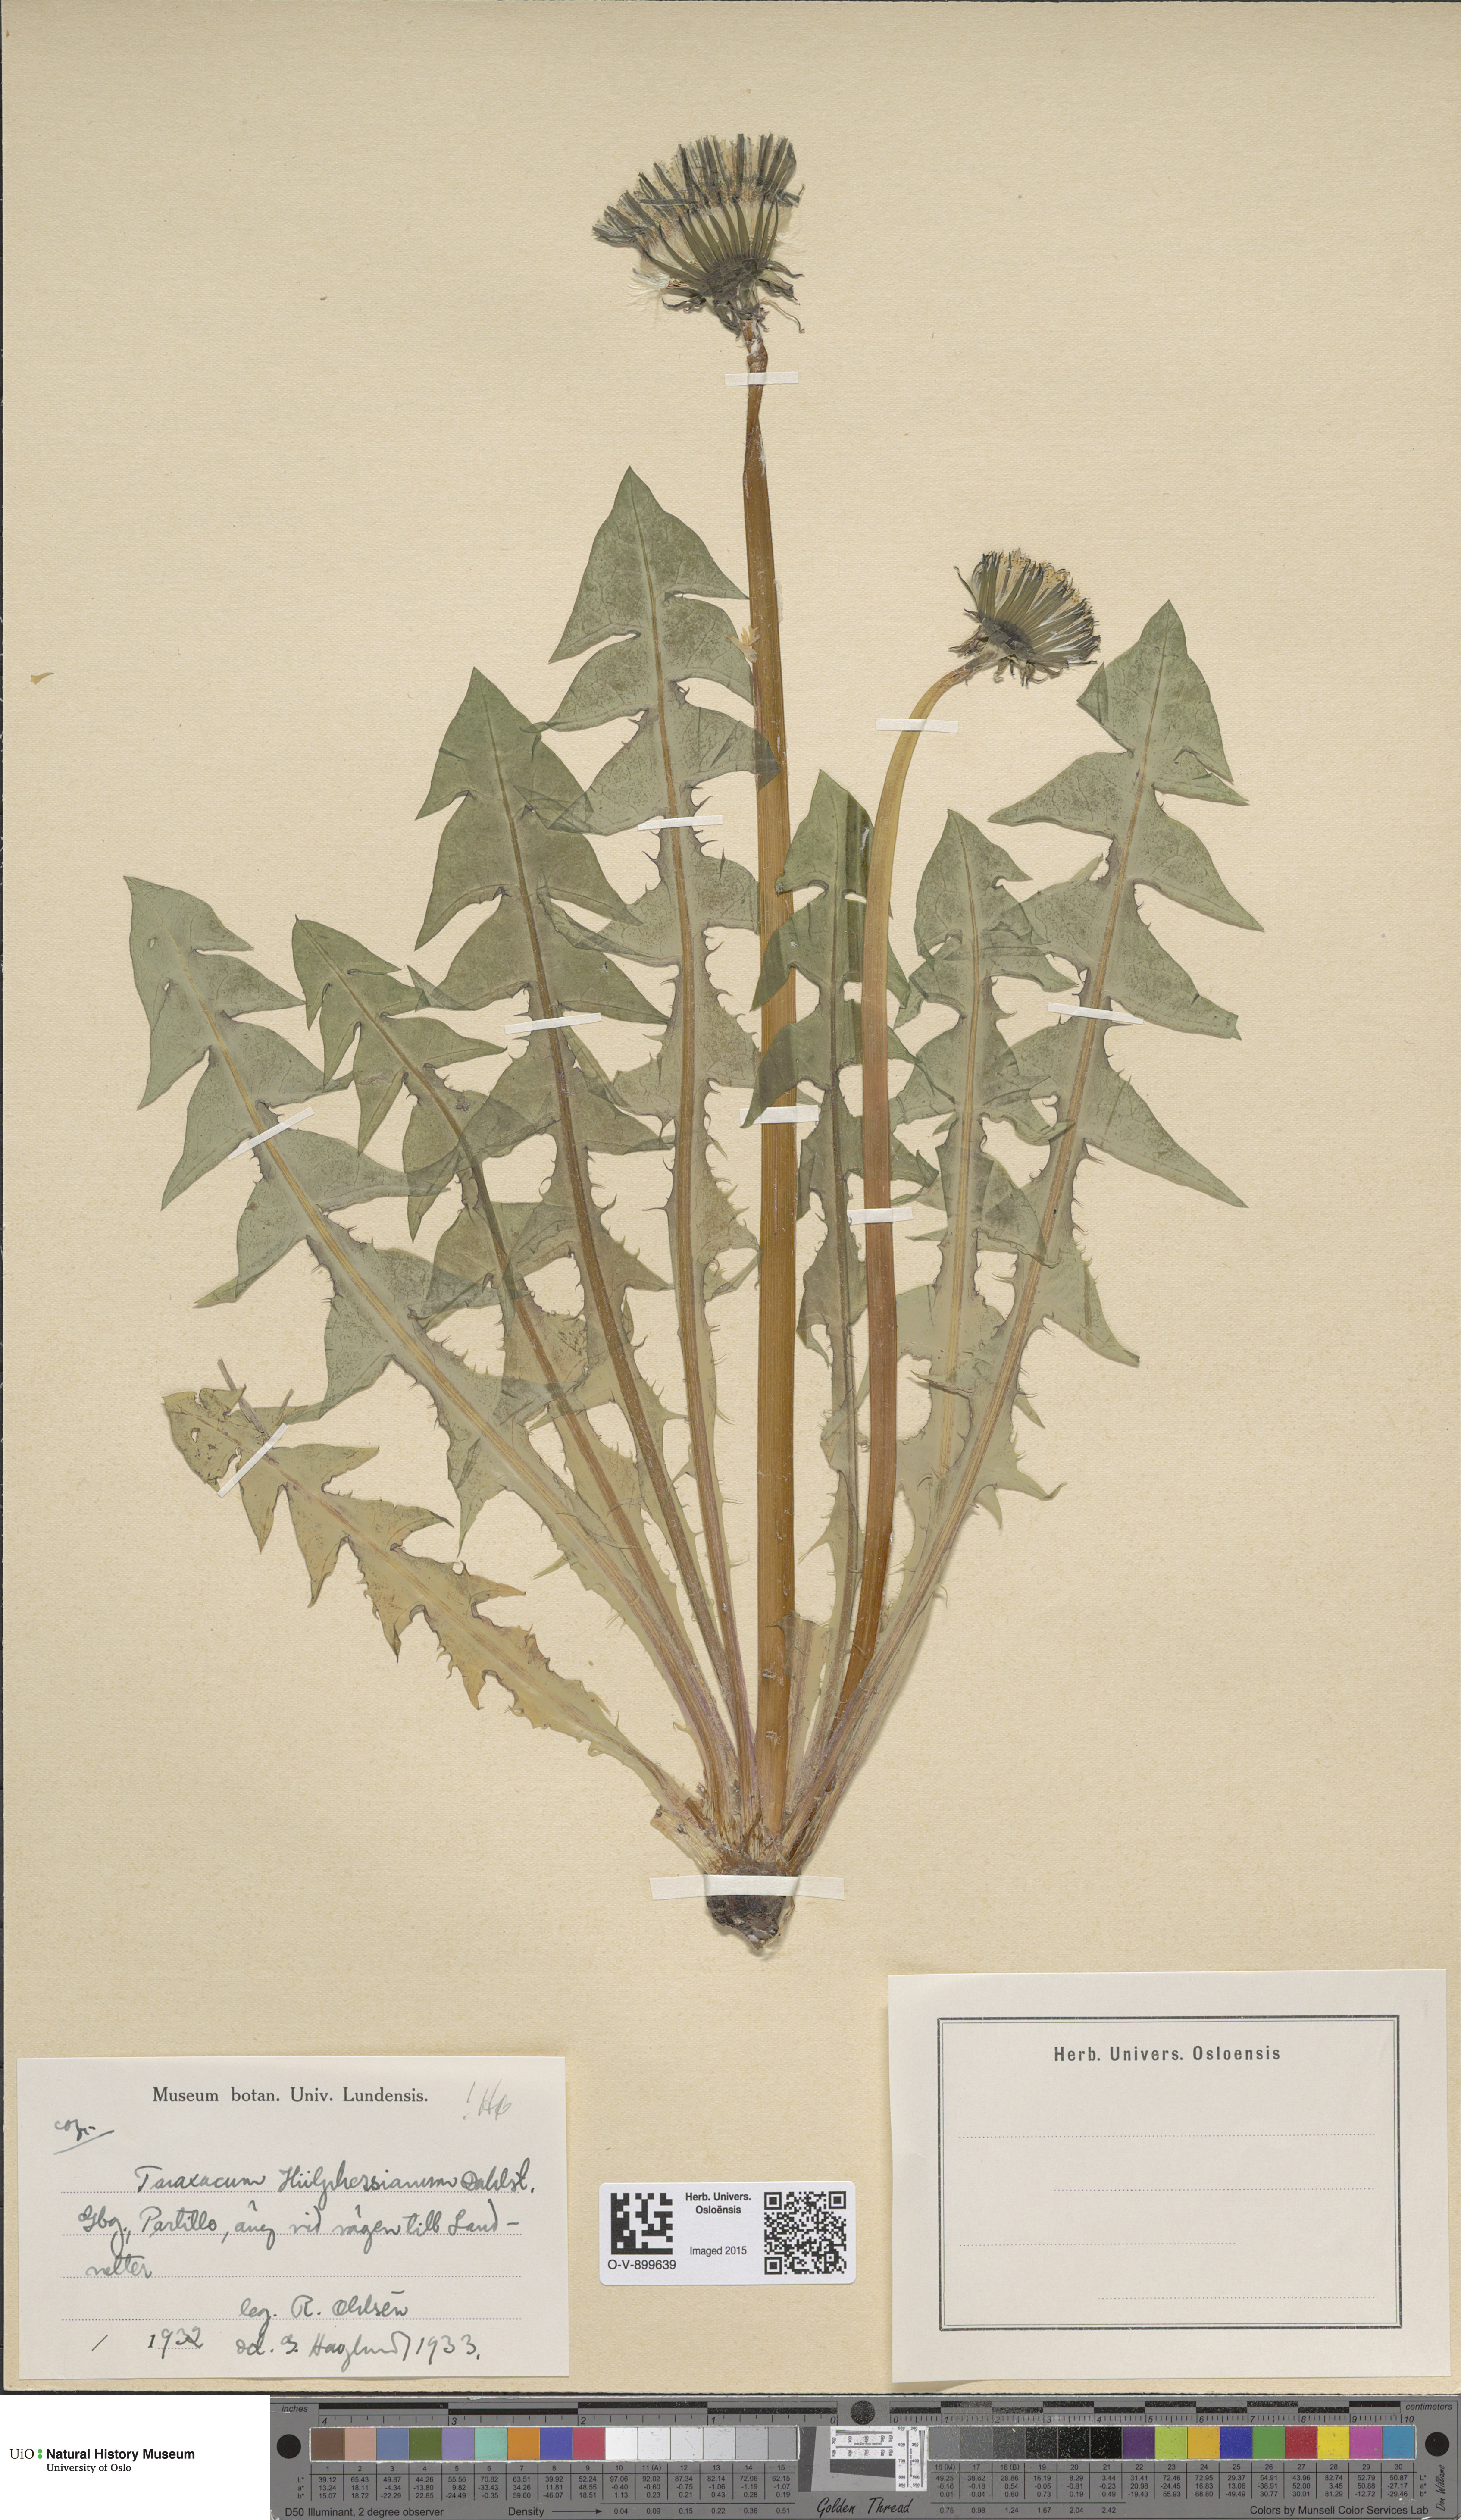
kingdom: Plantae
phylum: Tracheophyta
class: Magnoliopsida
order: Asterales
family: Asteraceae
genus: Taraxacum
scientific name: Taraxacum huelphersianum
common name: Hülphers's dandelion
